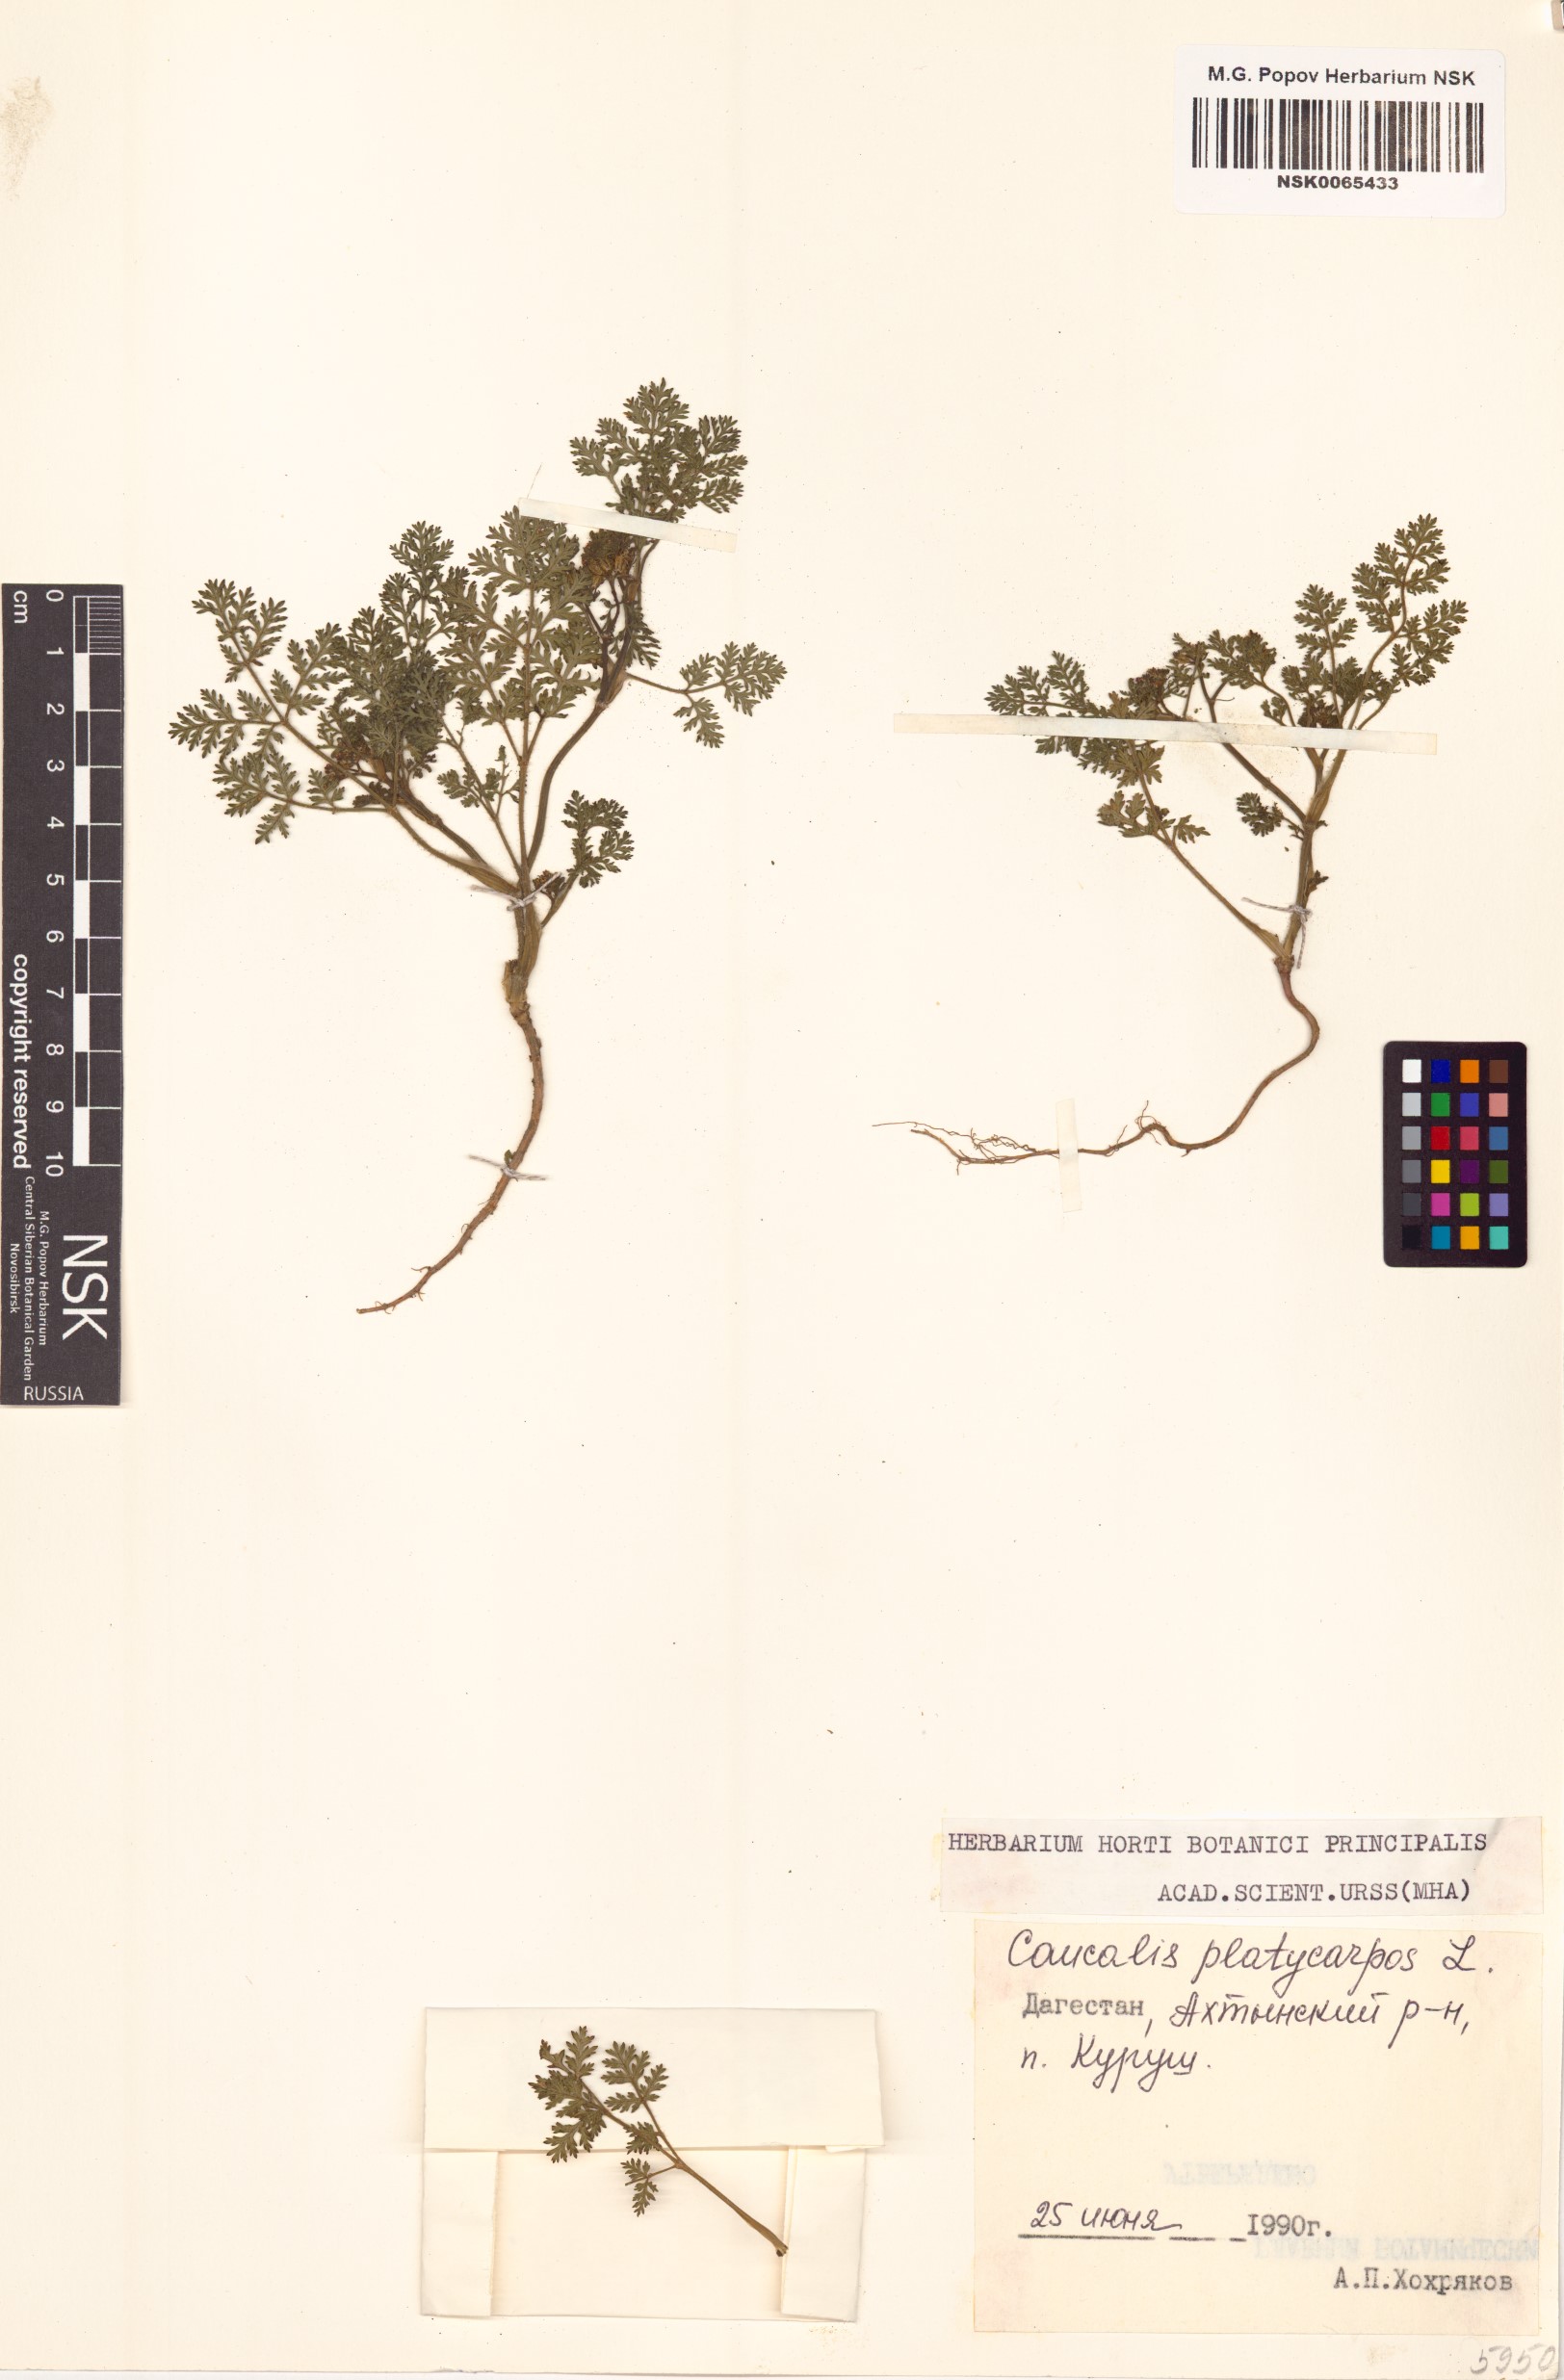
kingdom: Plantae
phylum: Tracheophyta
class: Magnoliopsida
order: Apiales
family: Apiaceae
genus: Caucalis
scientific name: Caucalis platycarpos
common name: Small bur-parsley
